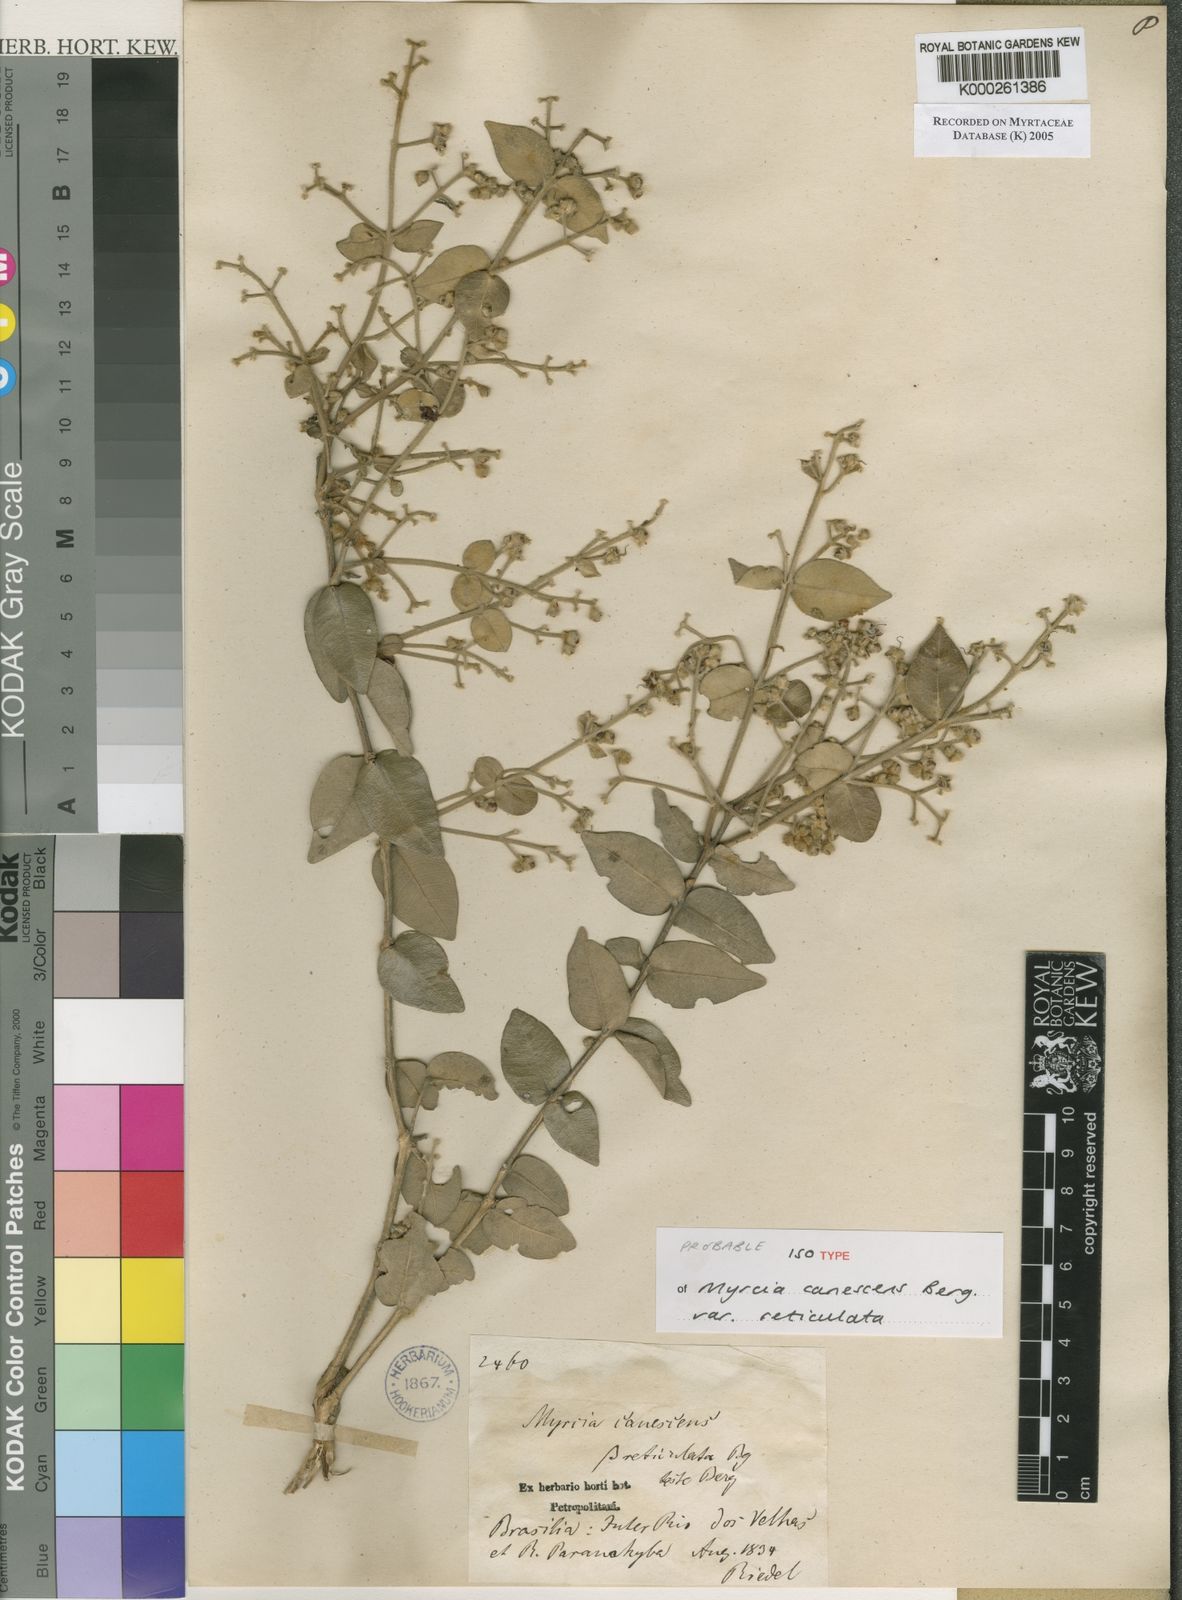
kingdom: Plantae
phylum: Tracheophyta
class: Magnoliopsida
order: Myrtales
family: Myrtaceae
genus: Myrcia
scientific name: Myrcia canescens
